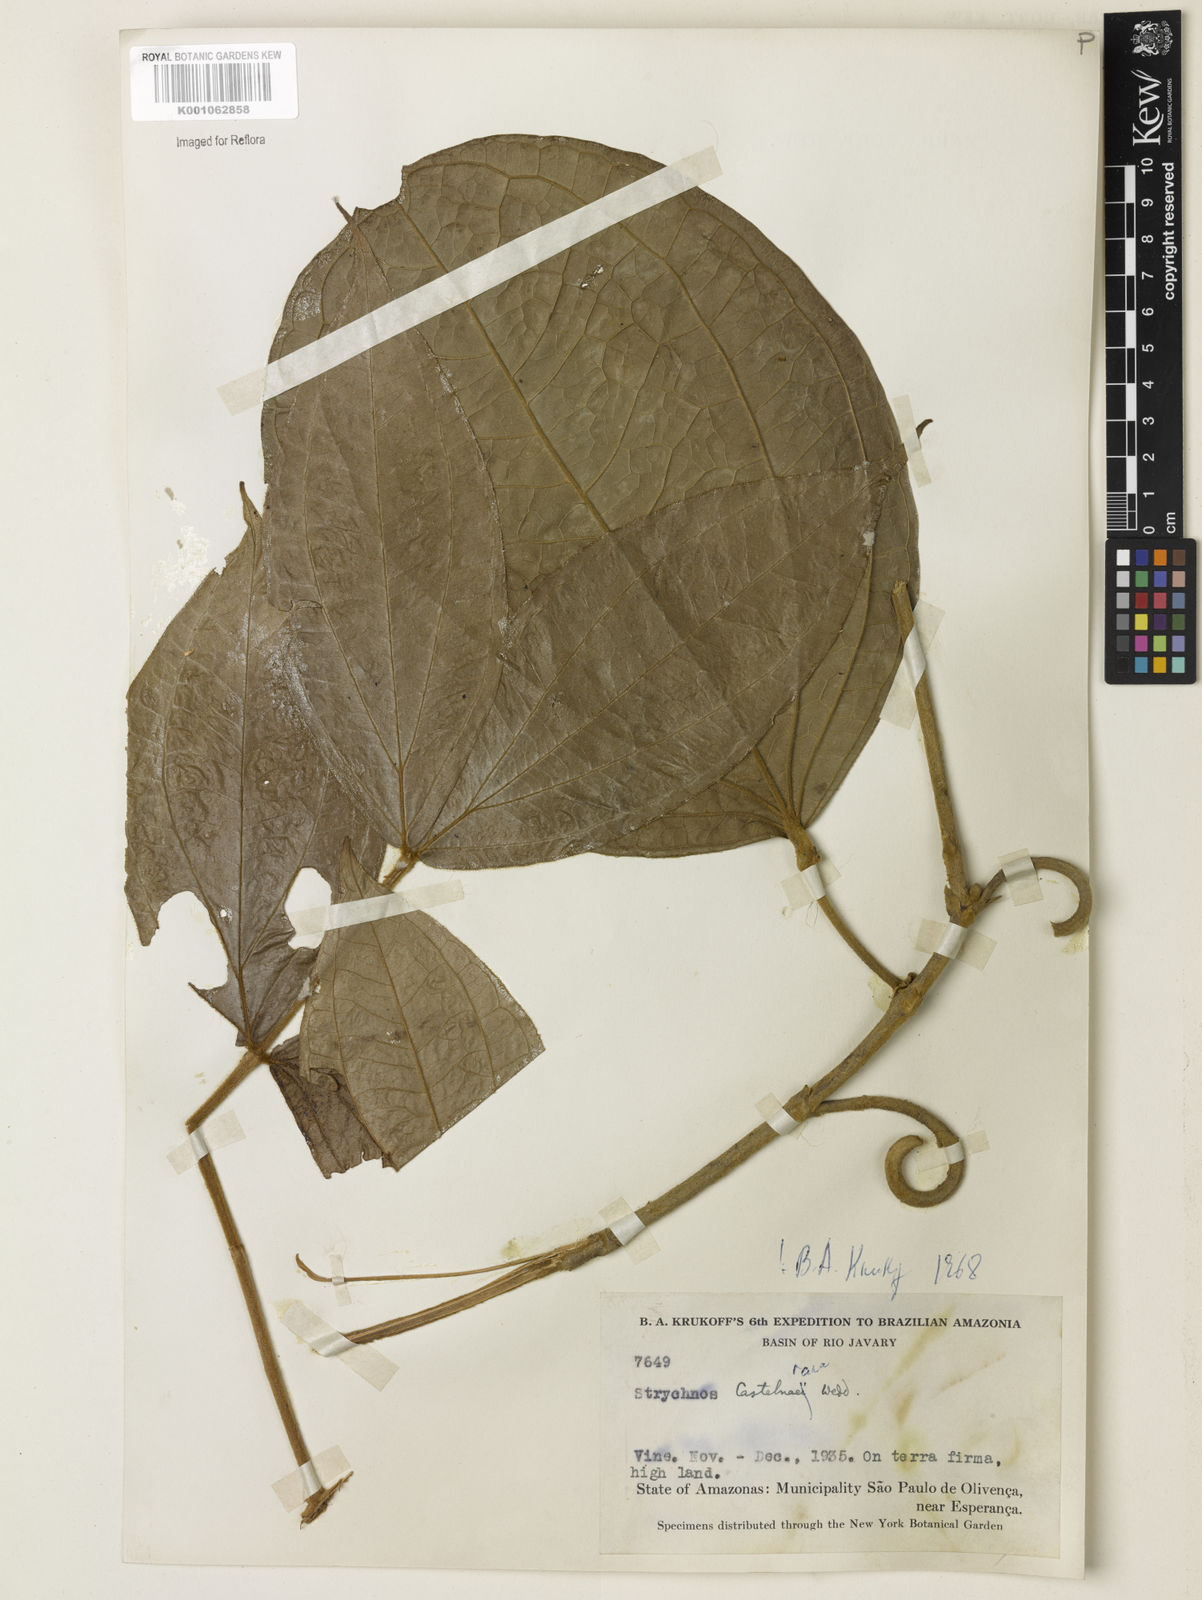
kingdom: Plantae
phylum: Tracheophyta
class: Magnoliopsida
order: Gentianales
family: Loganiaceae
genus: Strychnos
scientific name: Strychnos
